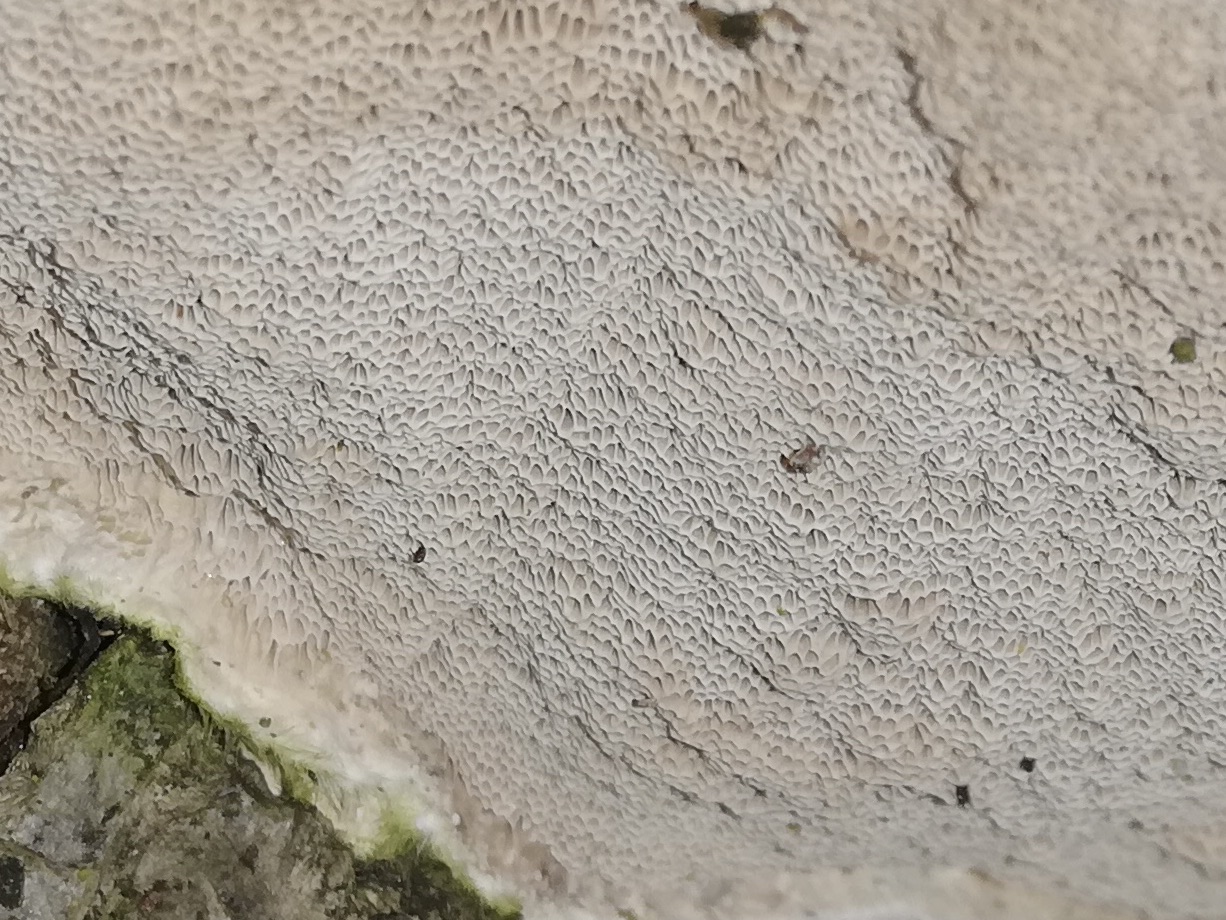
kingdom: Fungi
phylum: Basidiomycota
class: Agaricomycetes
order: Polyporales
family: Polyporaceae
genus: Trametes
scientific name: Trametes hirsuta
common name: håret læderporesvamp
